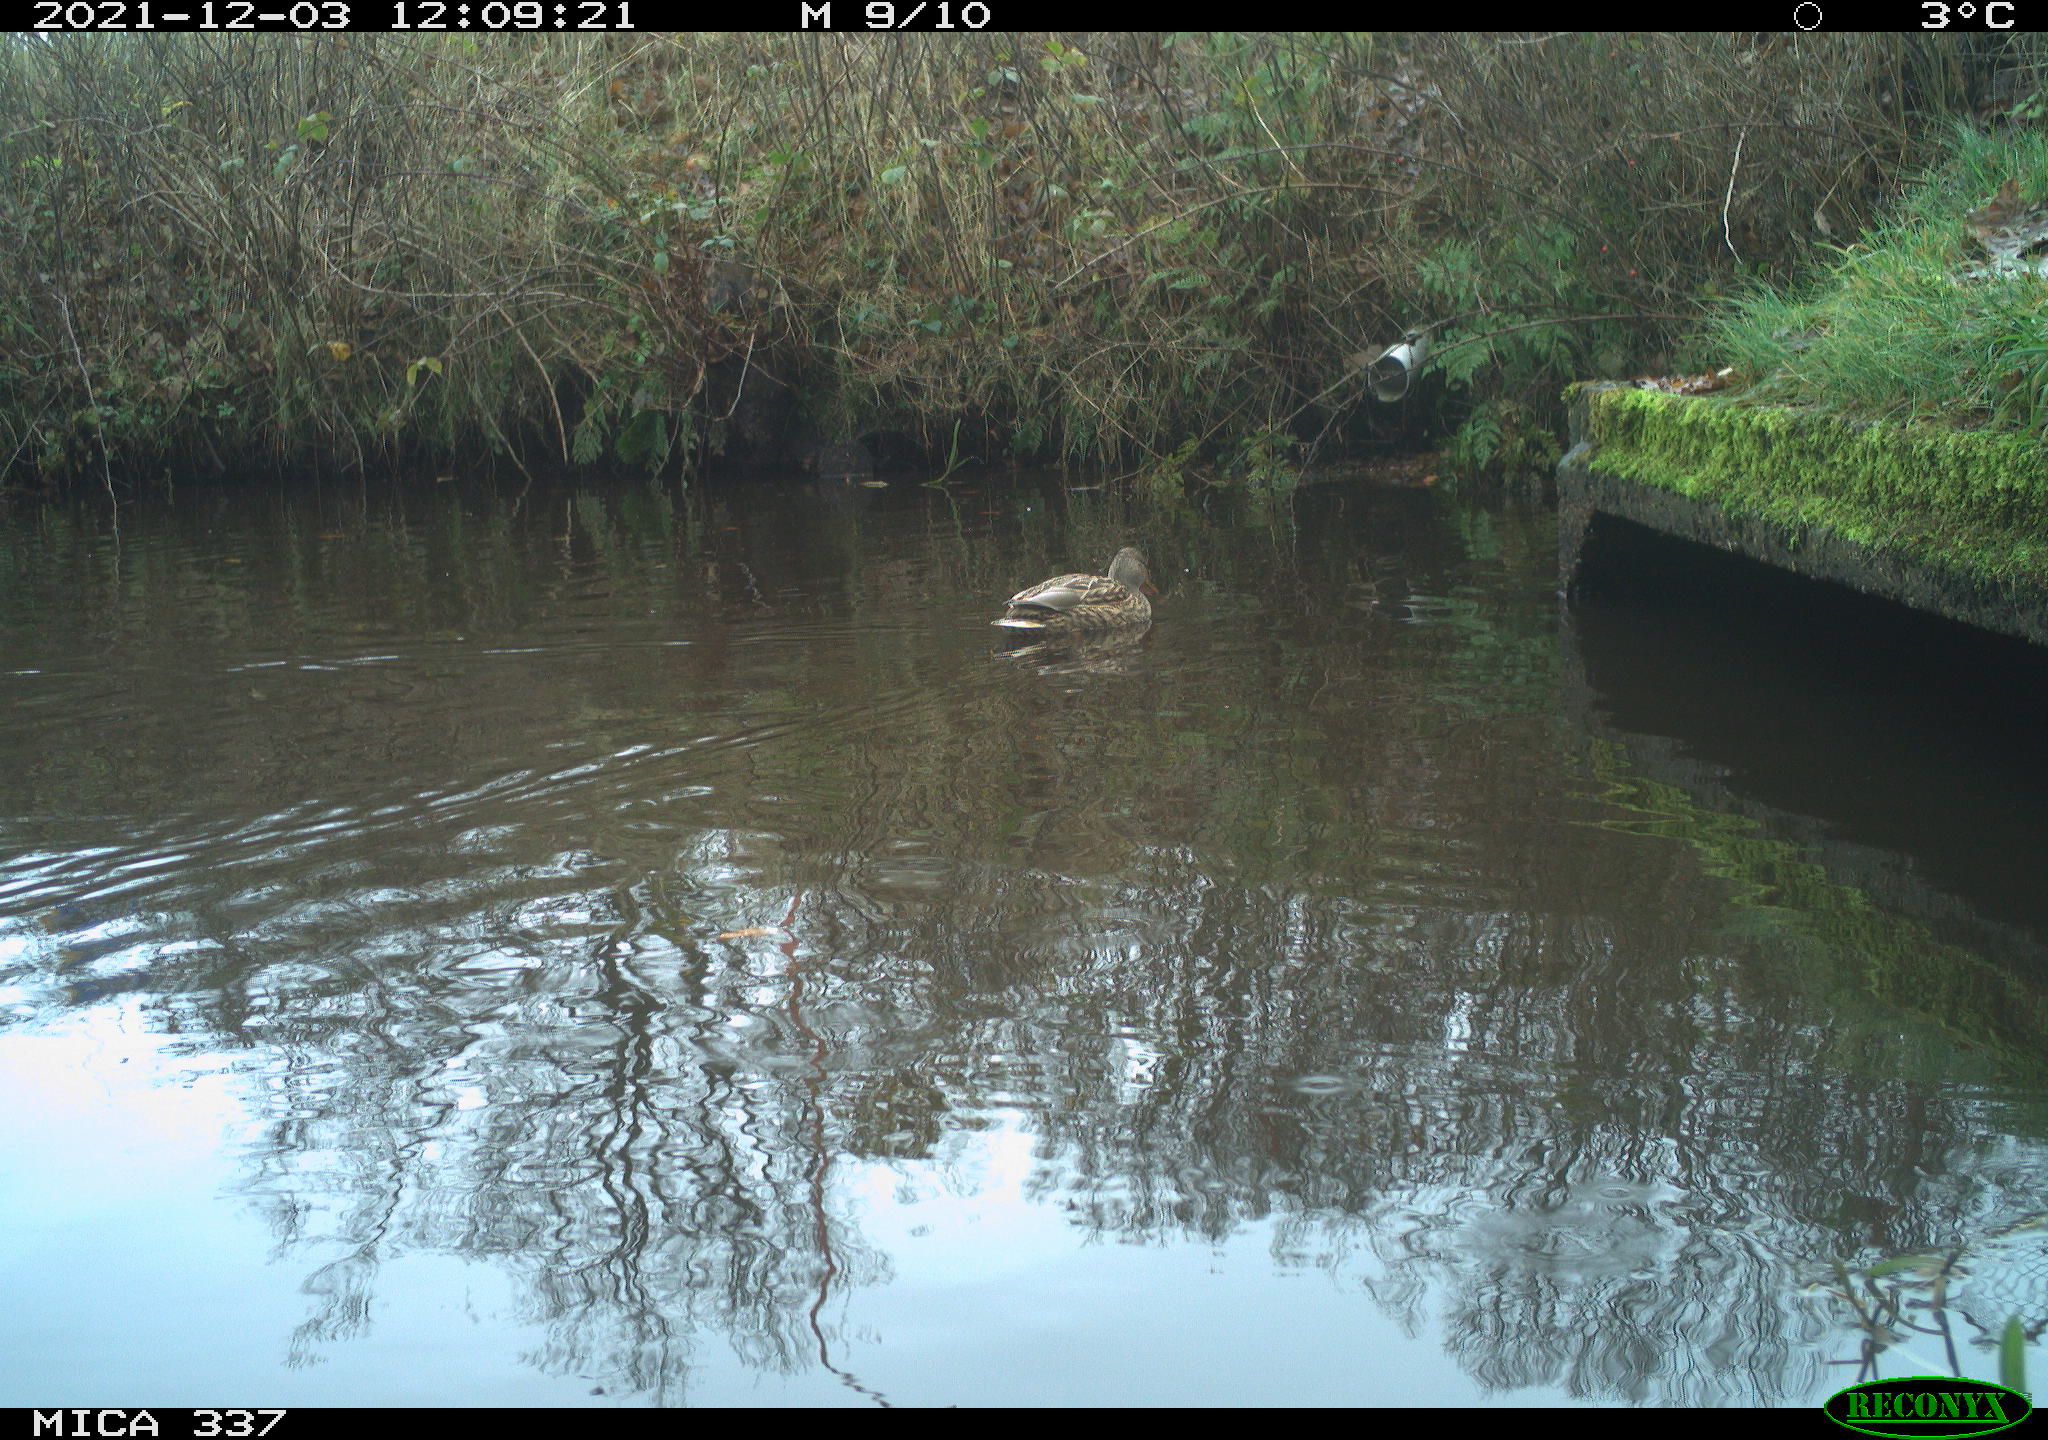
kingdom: Animalia
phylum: Chordata
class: Aves
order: Anseriformes
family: Anatidae
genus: Anas
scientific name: Anas platyrhynchos
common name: Mallard
